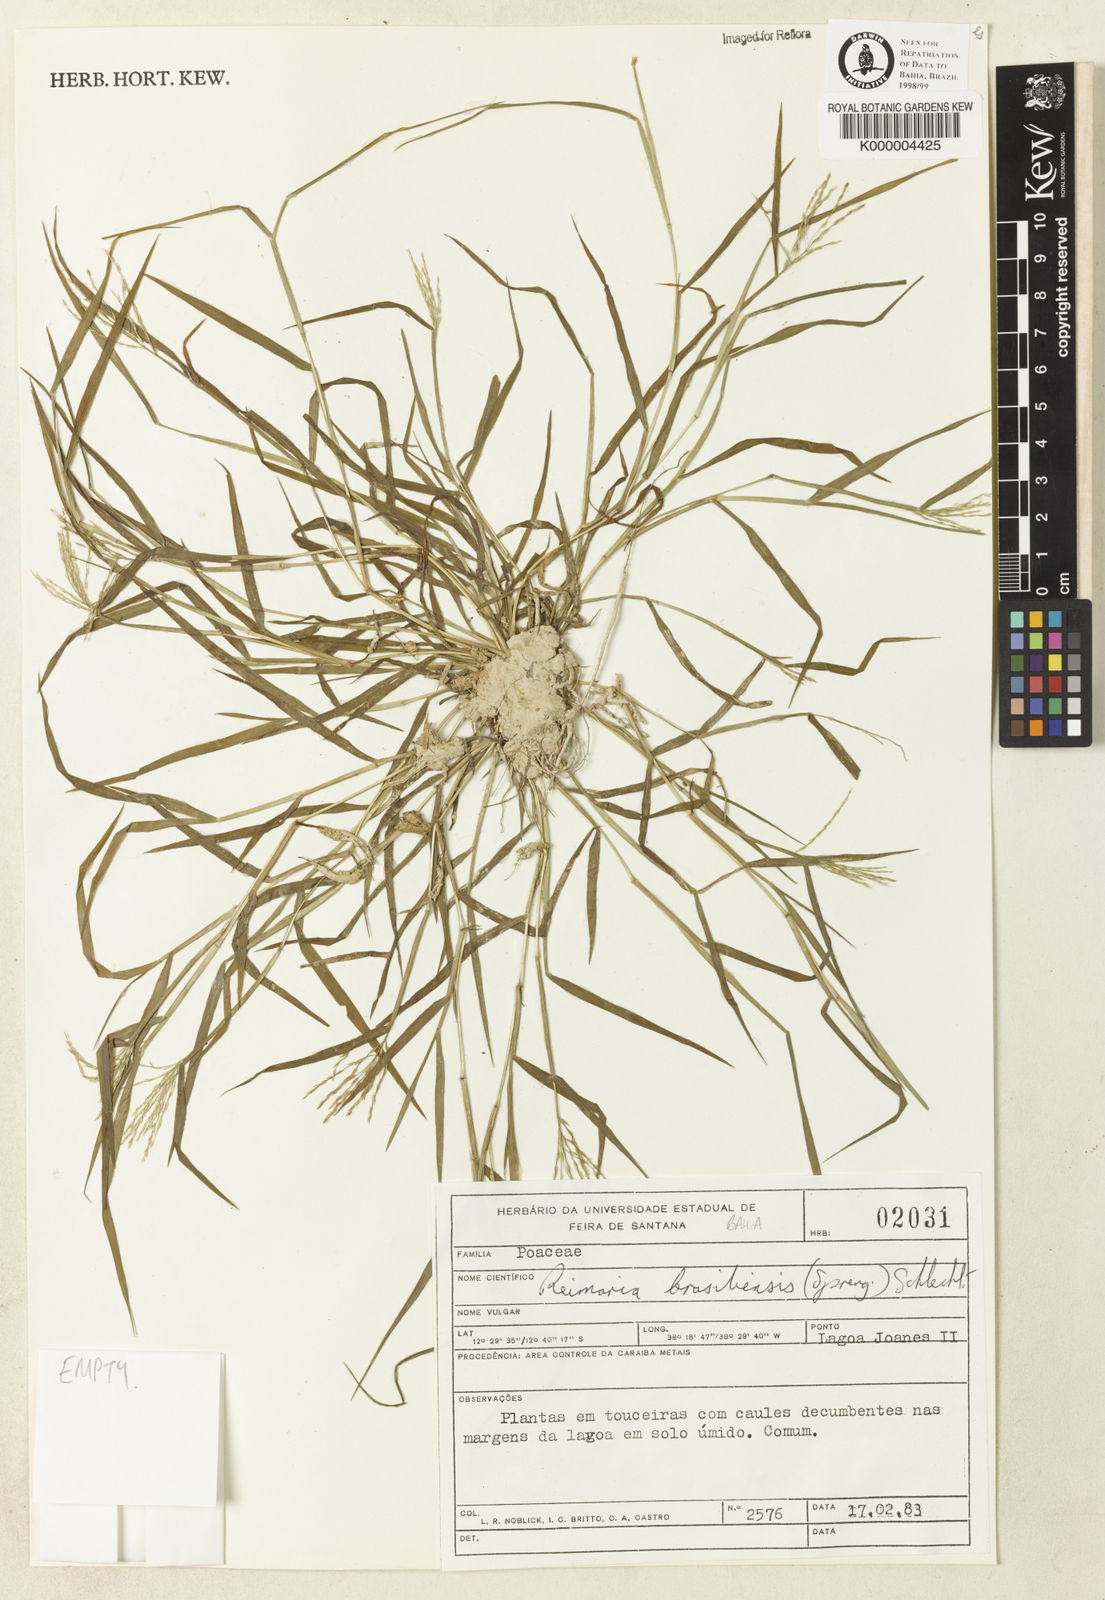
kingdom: Plantae
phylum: Tracheophyta
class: Liliopsida
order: Poales
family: Poaceae
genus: Paspalum
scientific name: Paspalum stagnophilum
